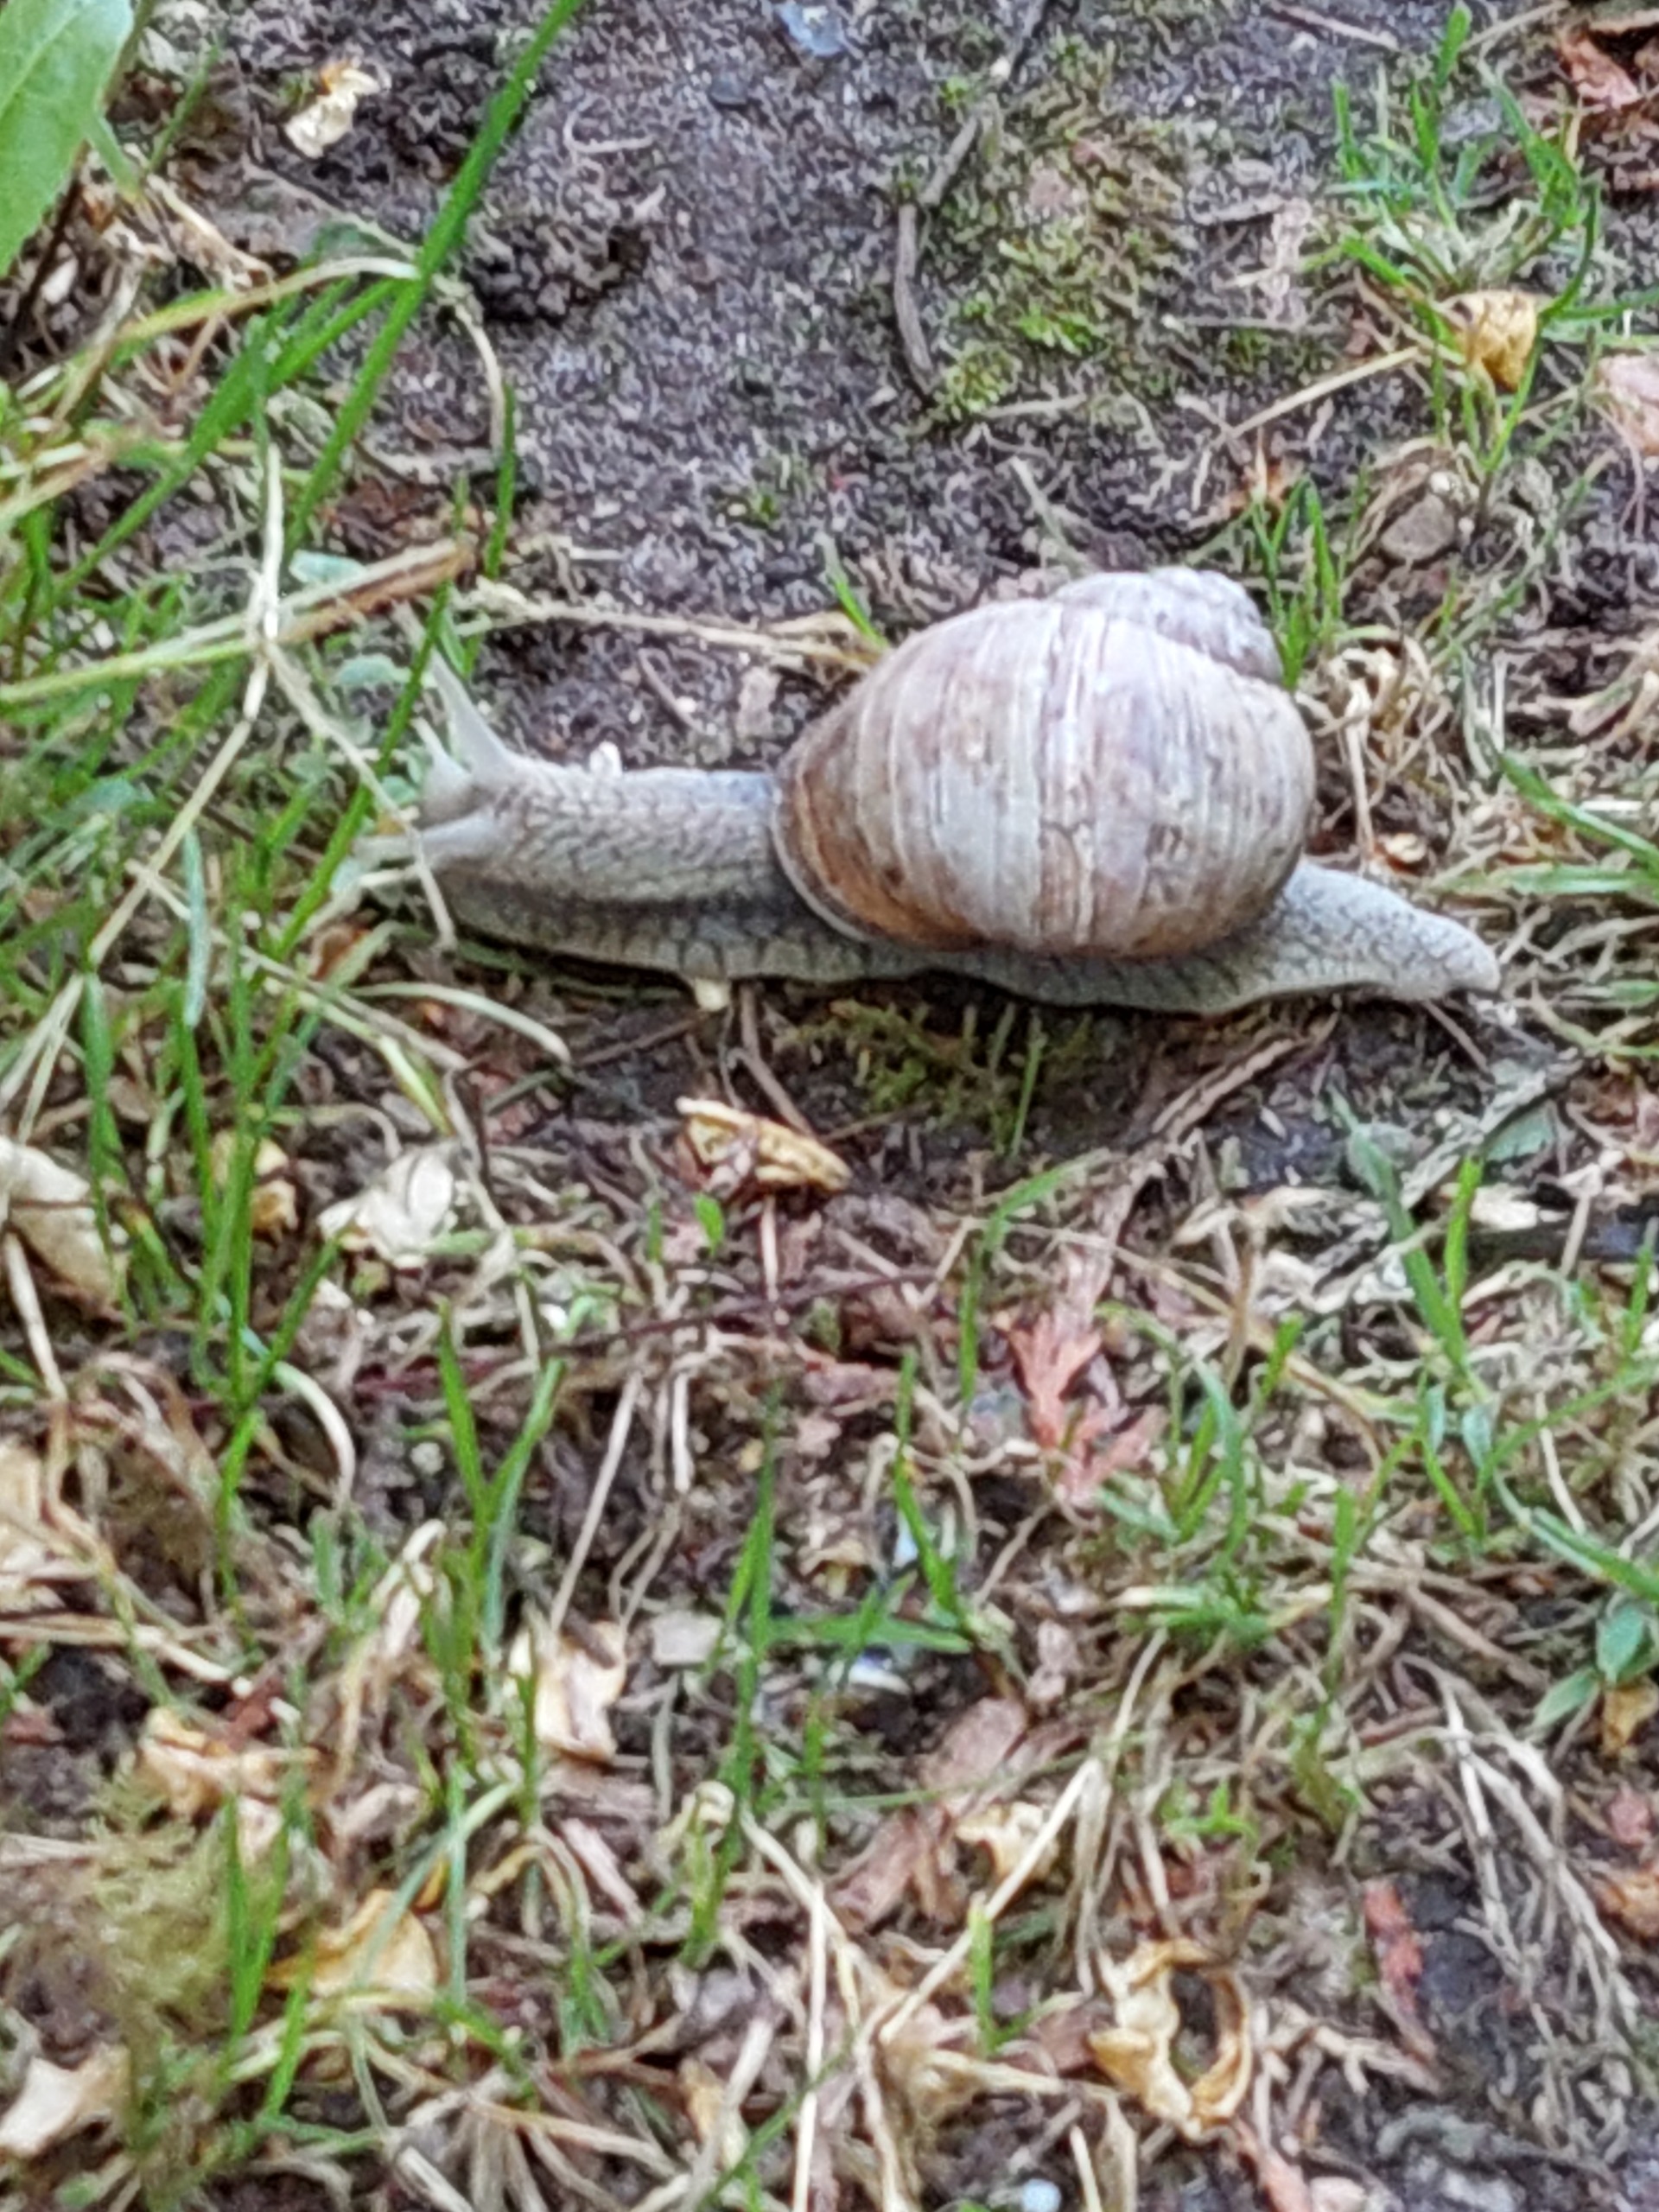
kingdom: Animalia
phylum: Mollusca
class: Gastropoda
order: Stylommatophora
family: Helicidae
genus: Helix
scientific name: Helix pomatia
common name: Vinbjergsnegl
